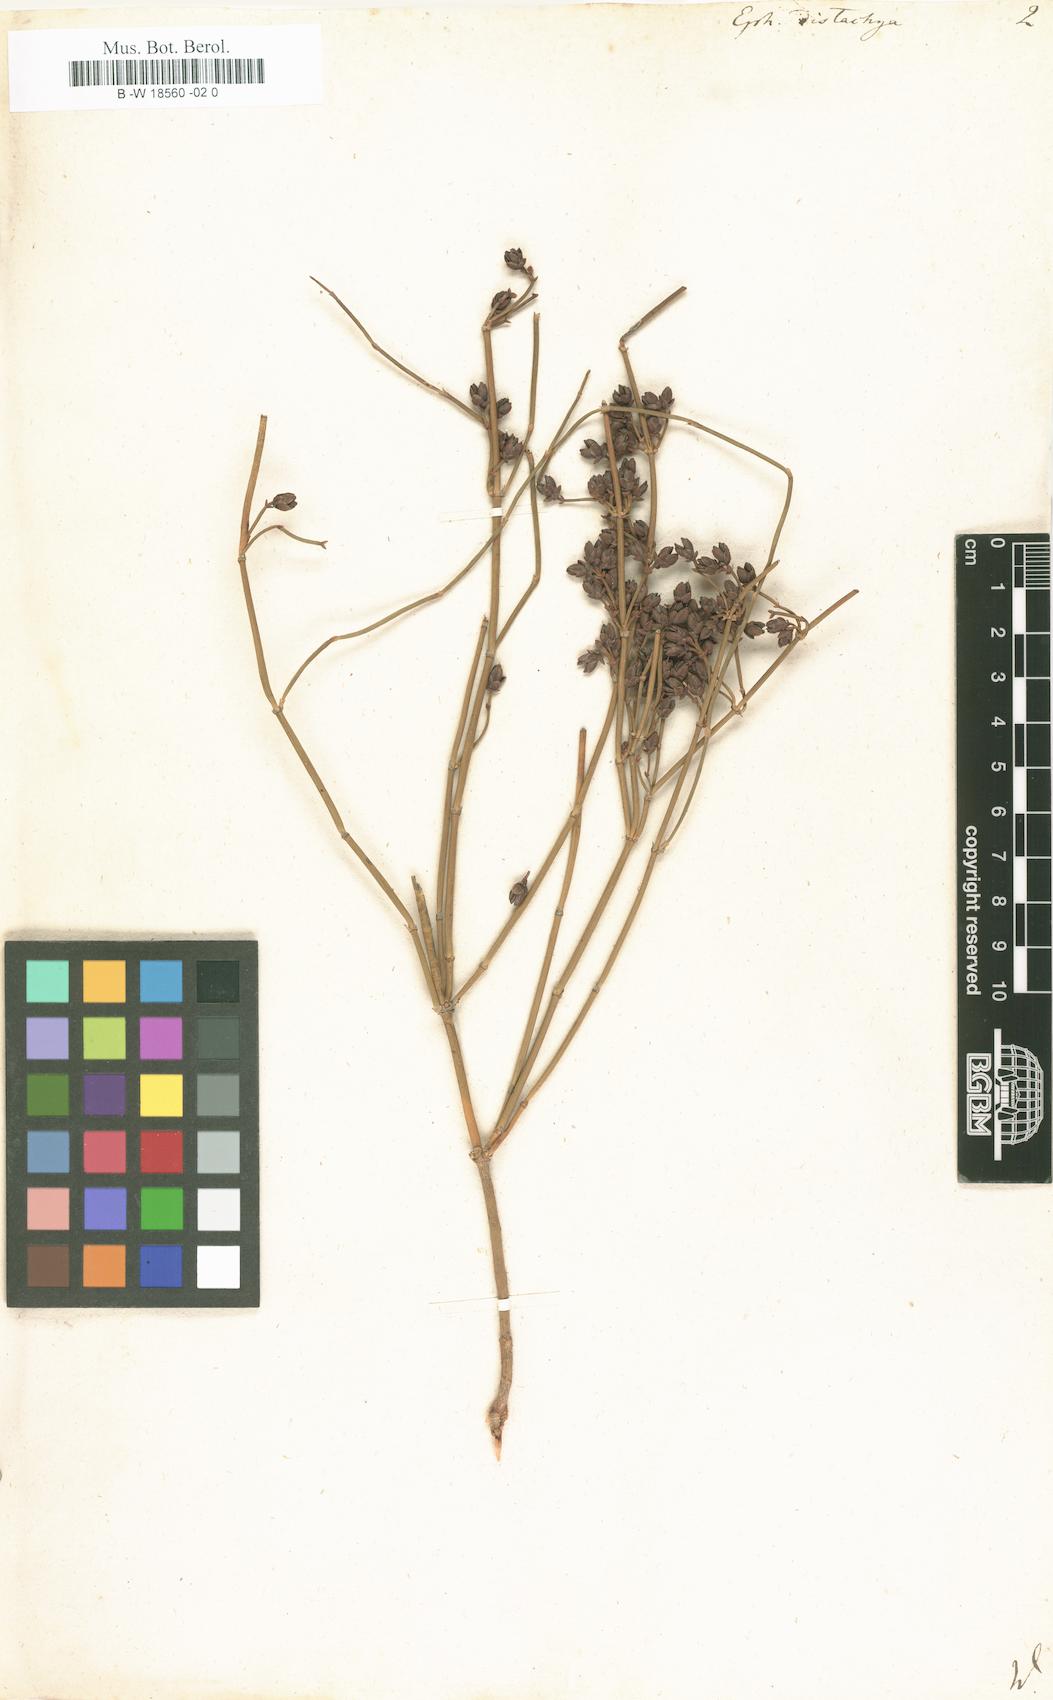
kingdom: Plantae
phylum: Tracheophyta
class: Gnetopsida
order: Ephedrales
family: Ephedraceae
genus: Ephedra
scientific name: Ephedra distachya
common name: Sea grape
